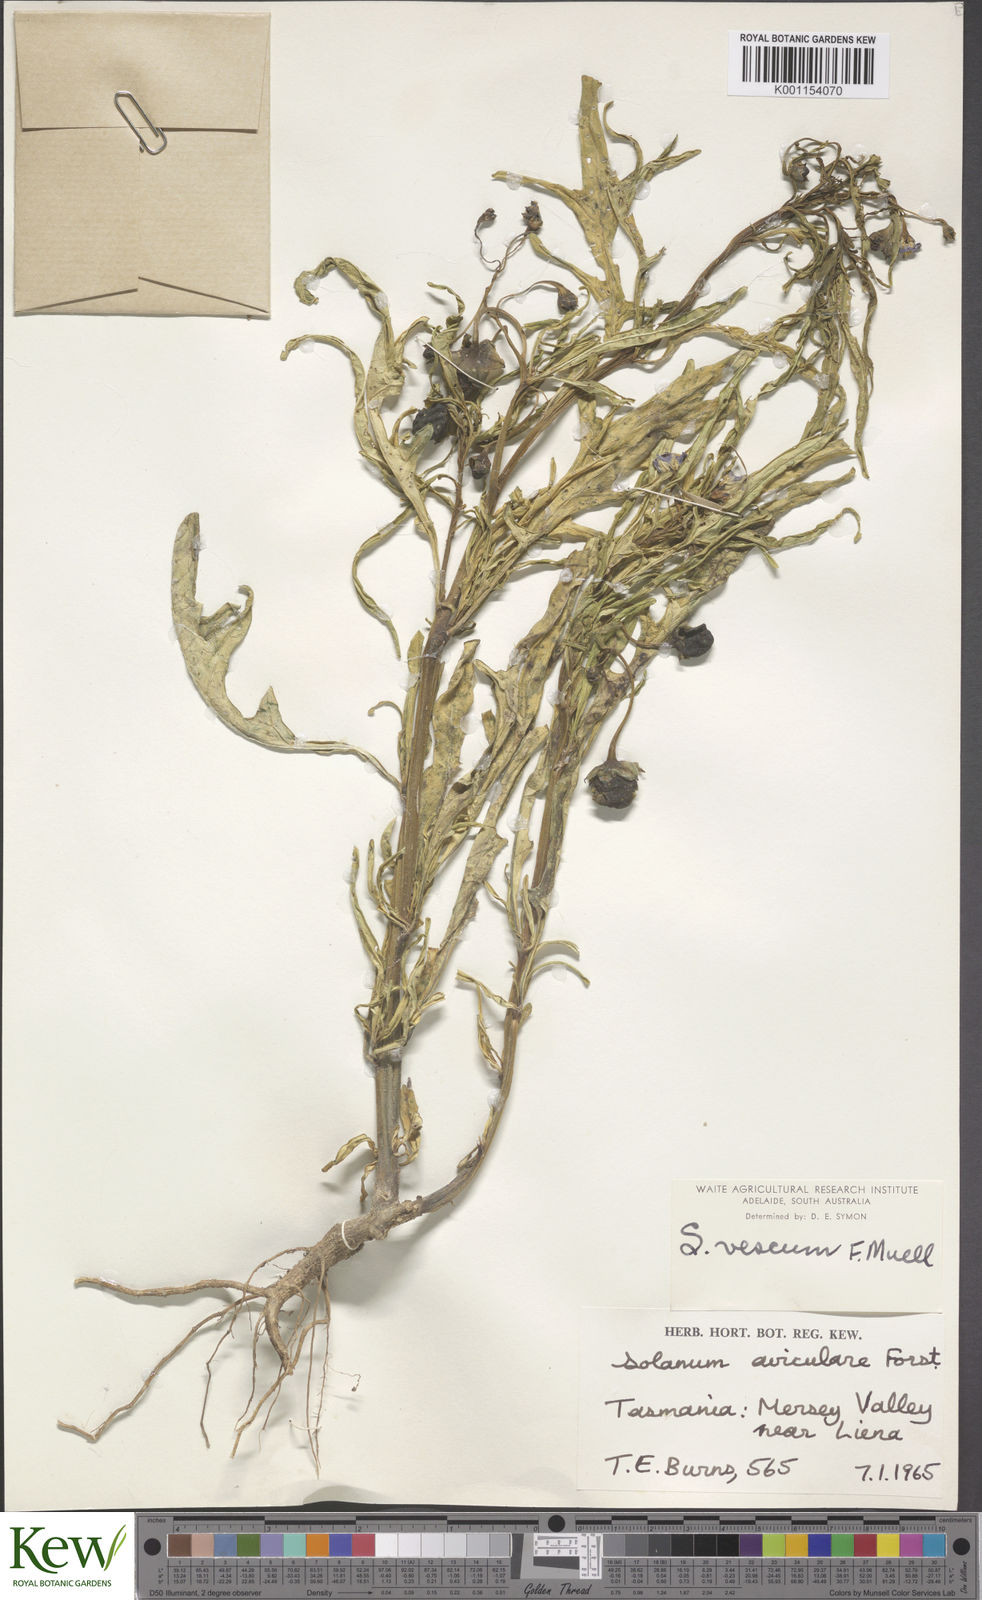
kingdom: Plantae
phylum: Tracheophyta
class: Magnoliopsida
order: Solanales
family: Solanaceae
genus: Solanum
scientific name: Solanum vescum
